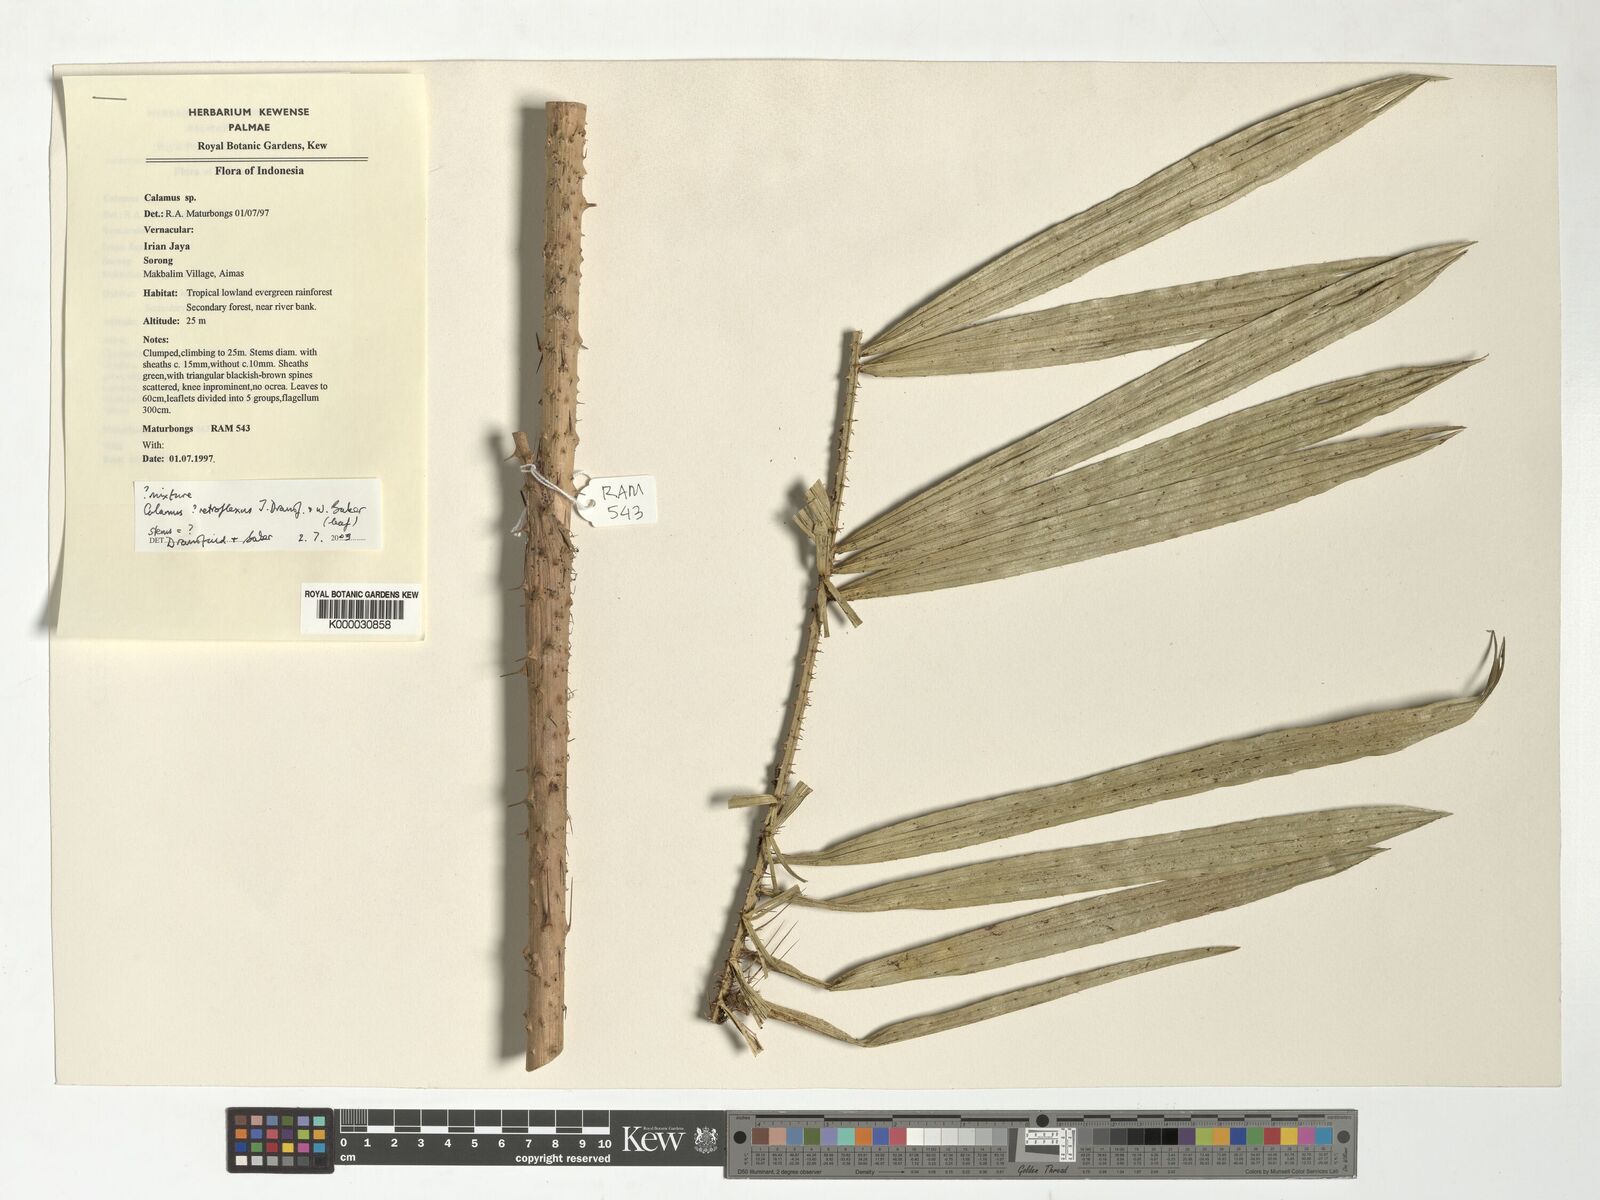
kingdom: Plantae
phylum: Tracheophyta
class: Liliopsida
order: Arecales
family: Arecaceae
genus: Calamus
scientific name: Calamus retroflexus
